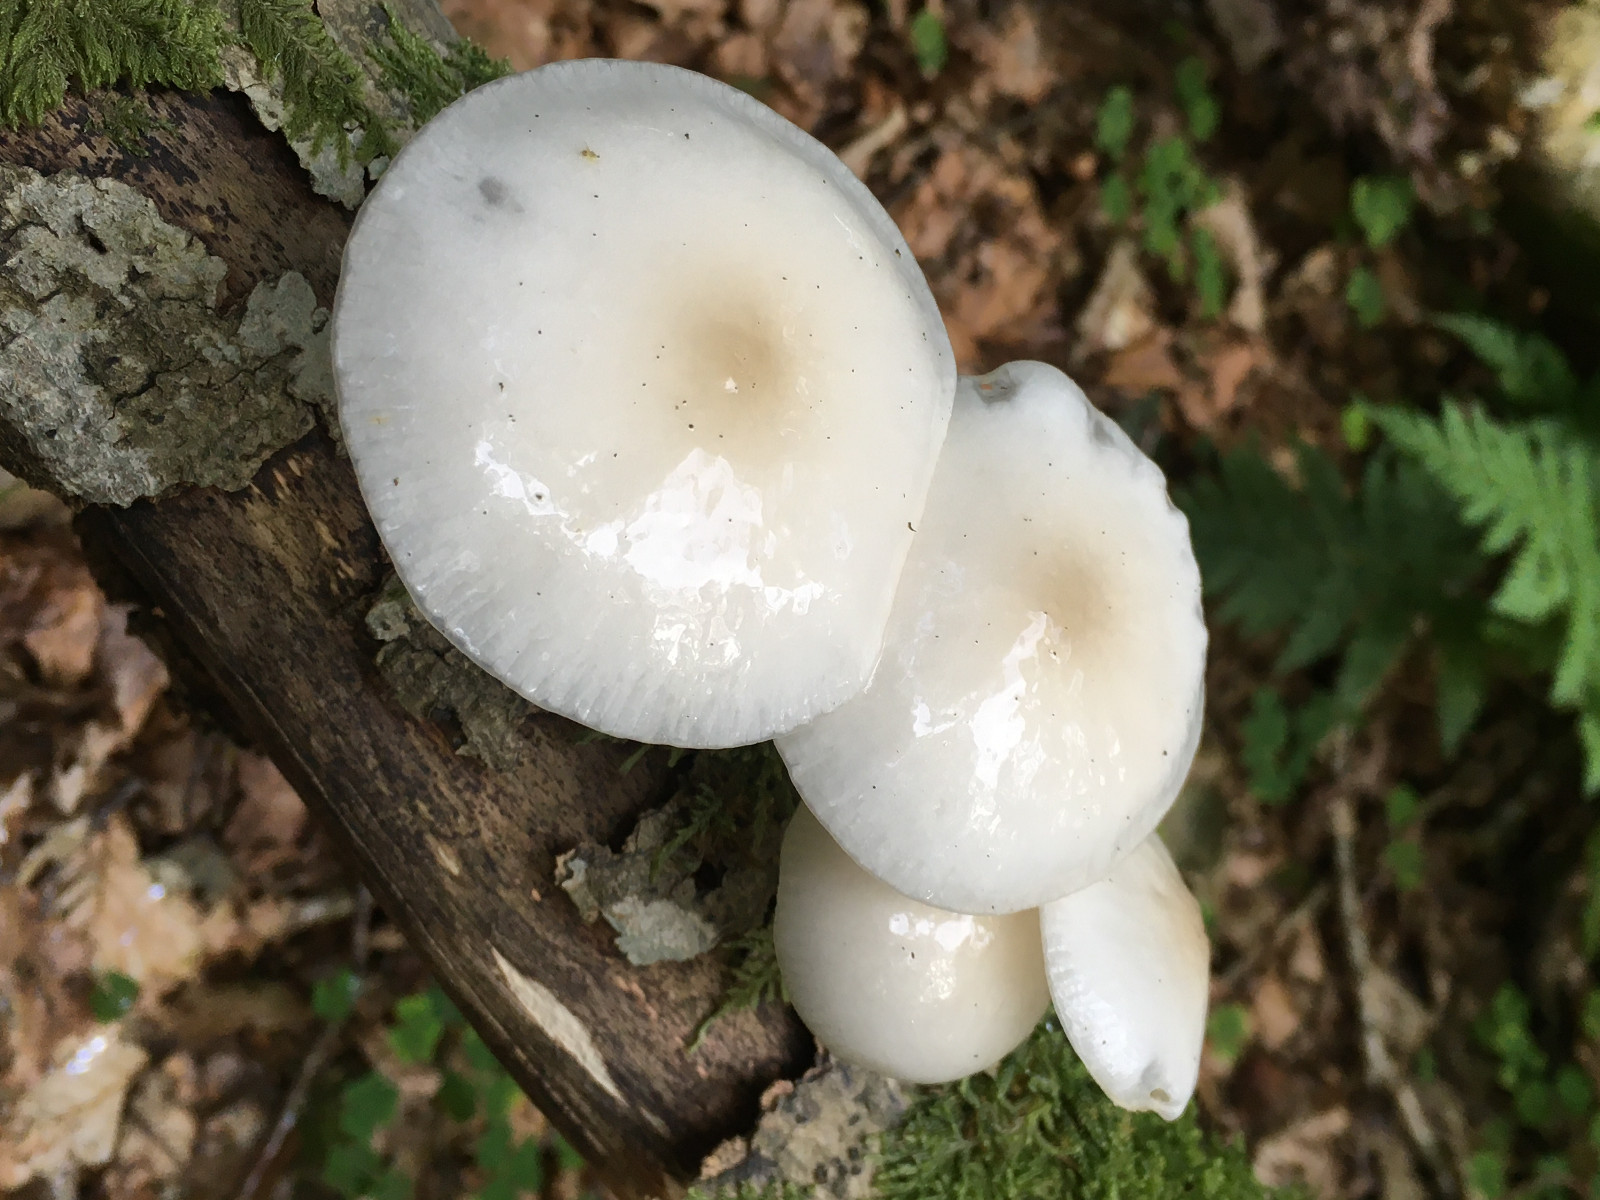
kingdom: Fungi
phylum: Basidiomycota
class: Agaricomycetes
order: Agaricales
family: Physalacriaceae
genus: Mucidula
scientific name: Mucidula mucida
